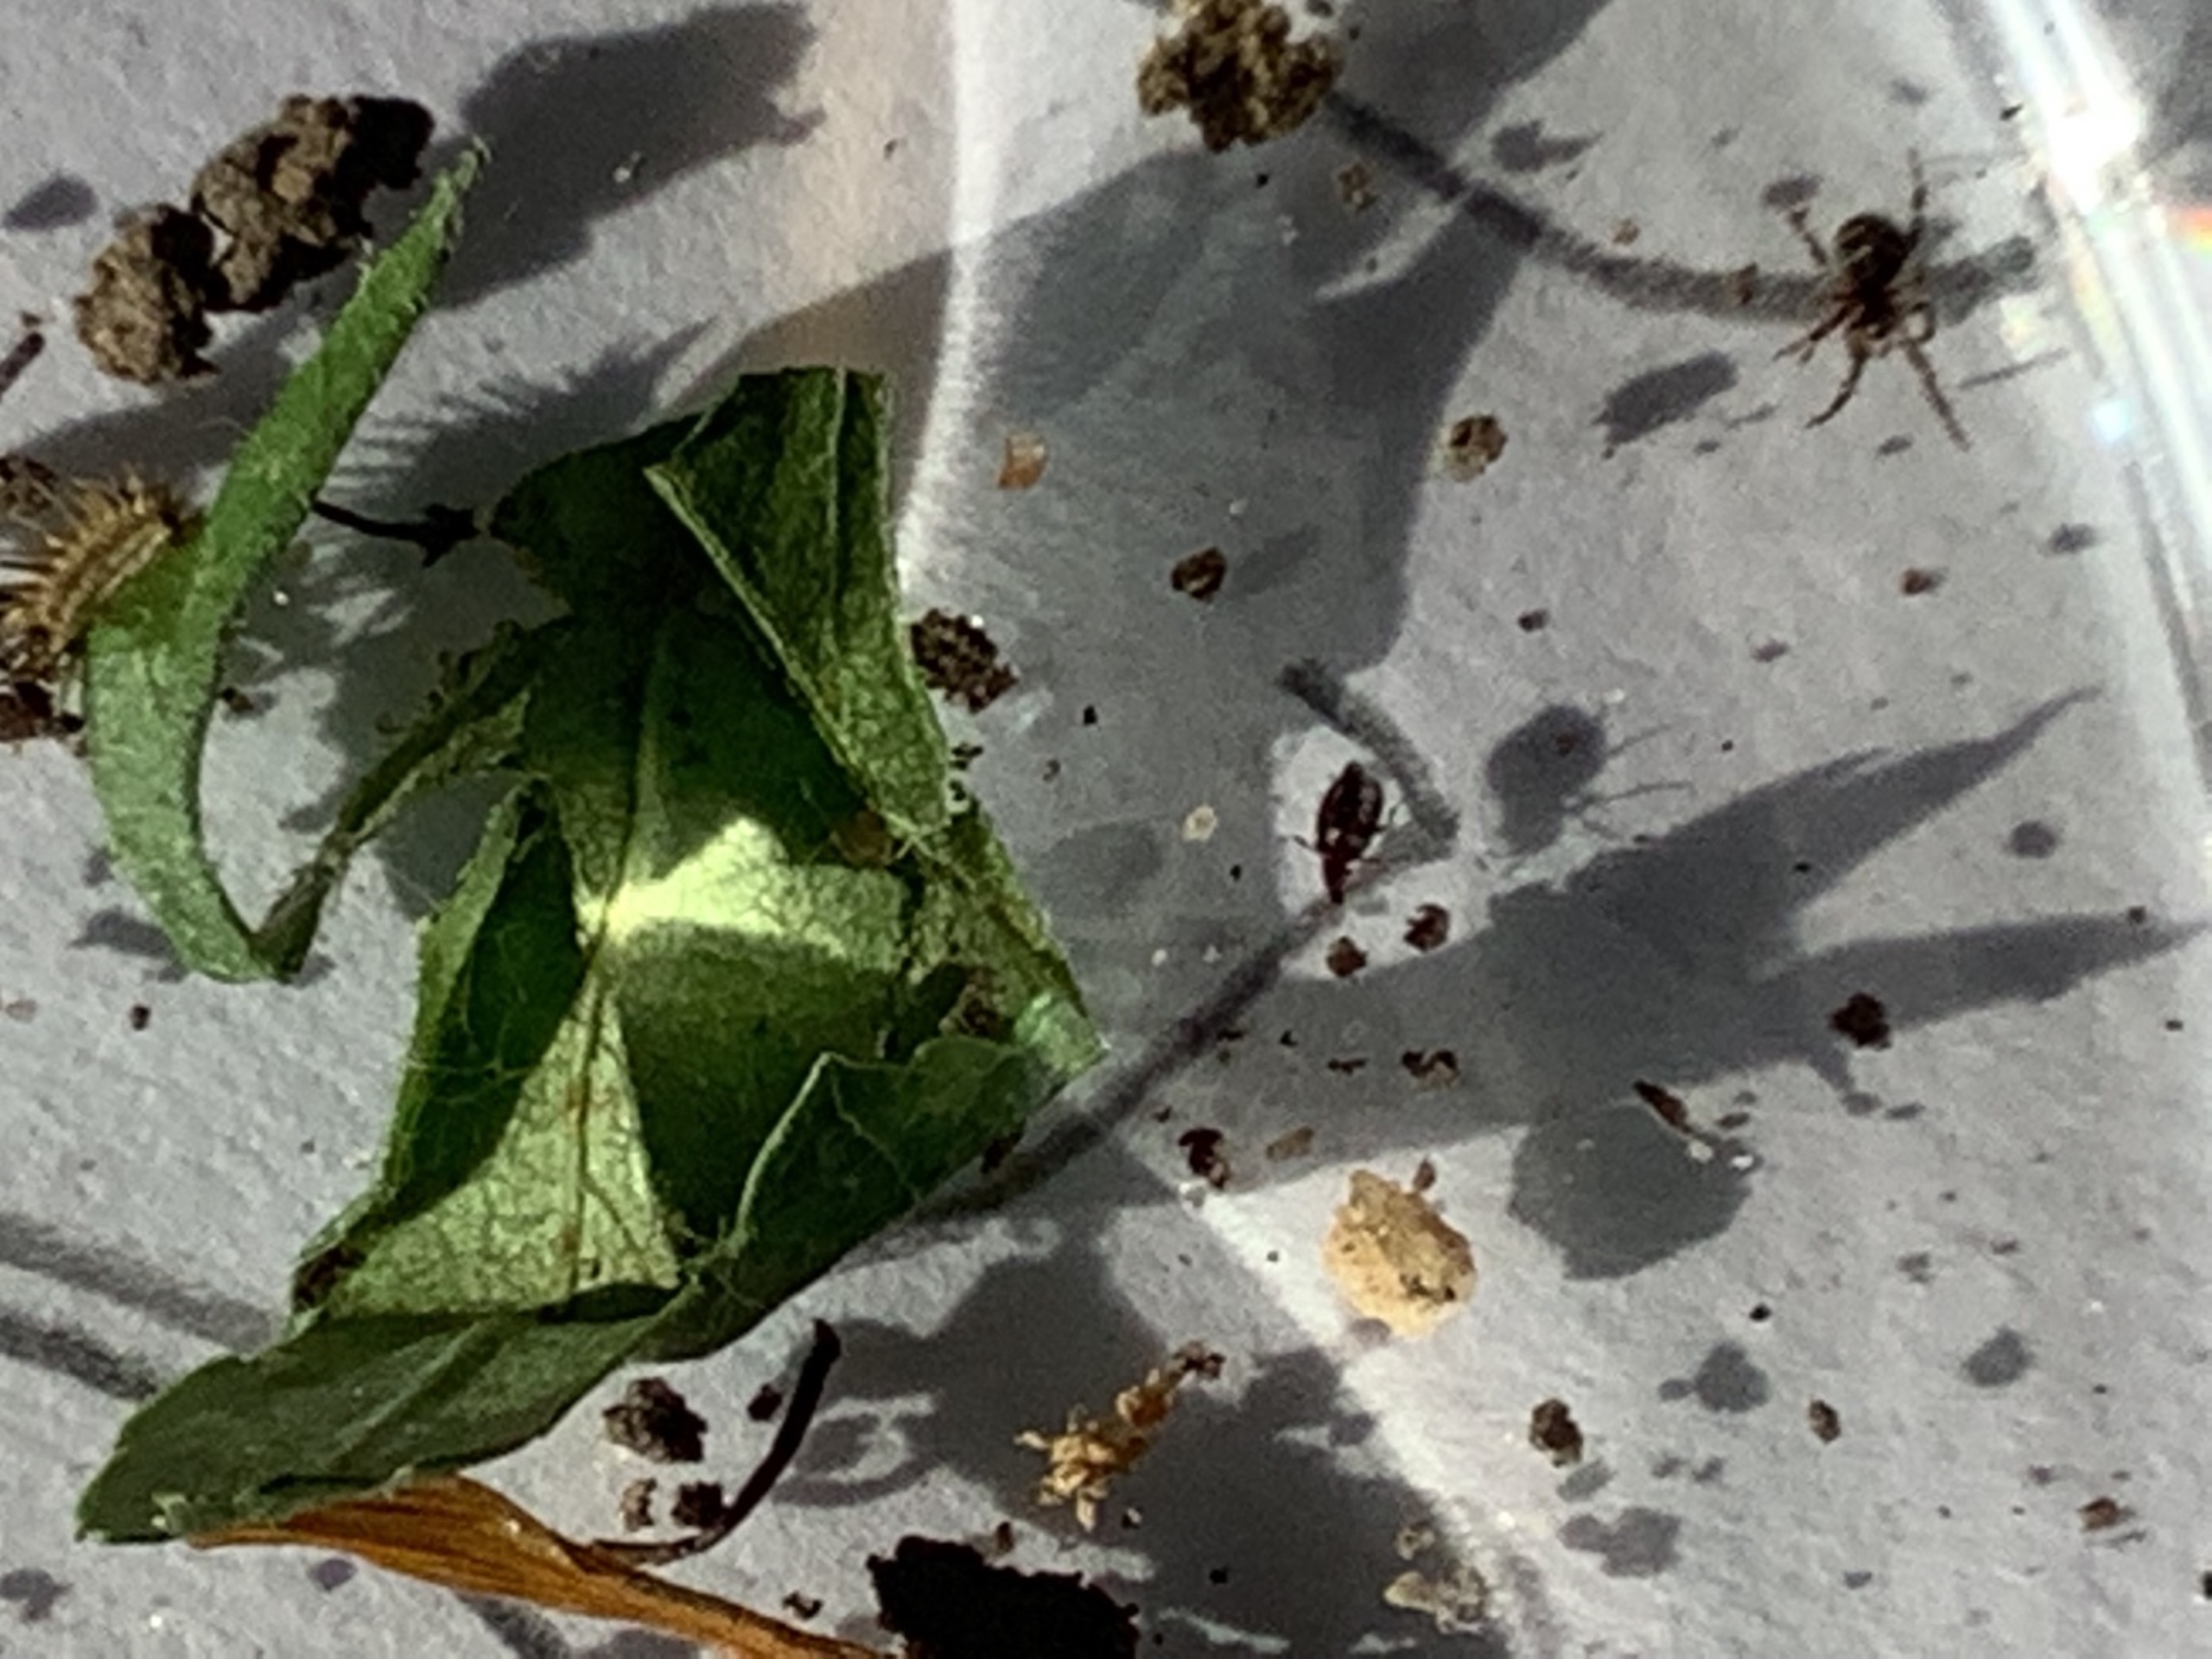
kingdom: Animalia
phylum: Arthropoda
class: Arachnida
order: Araneae
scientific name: Araneae
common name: Edderkopper
